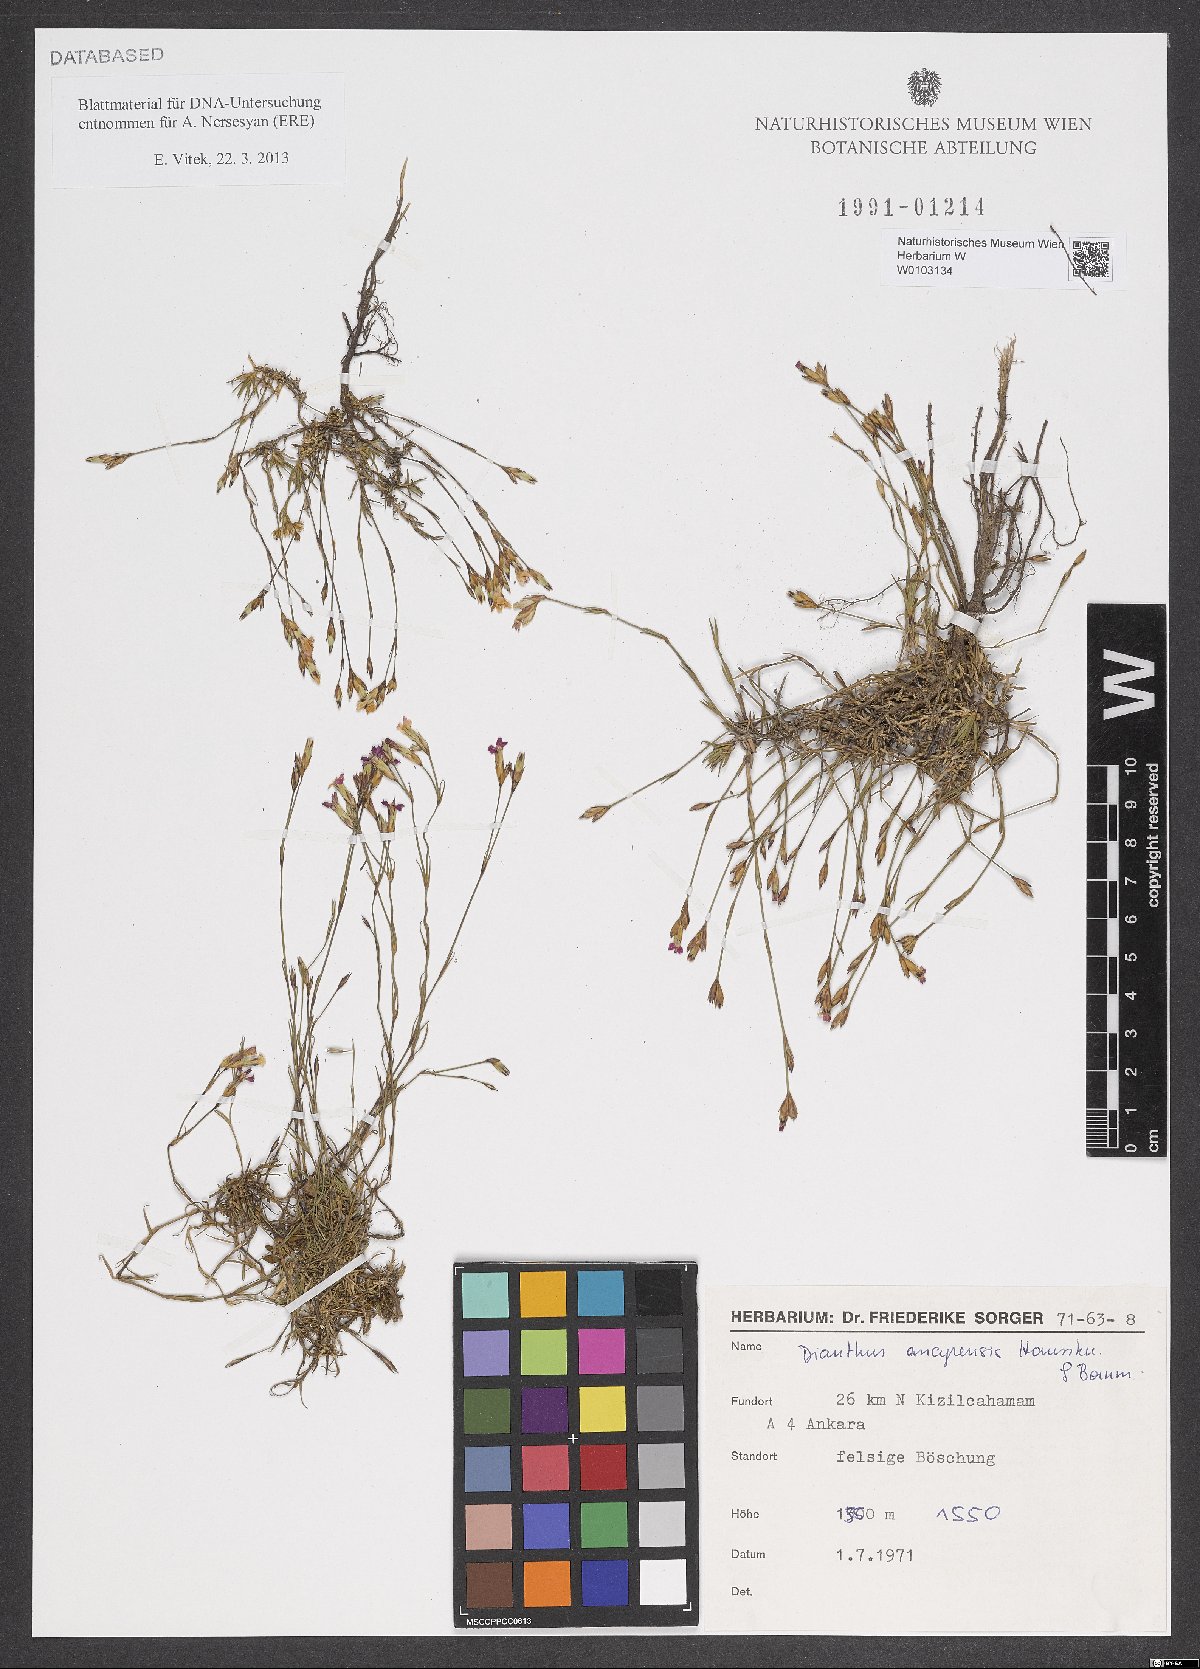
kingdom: Plantae
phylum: Tracheophyta
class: Magnoliopsida
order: Caryophyllales
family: Caryophyllaceae
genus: Dianthus
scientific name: Dianthus ancyrensis
